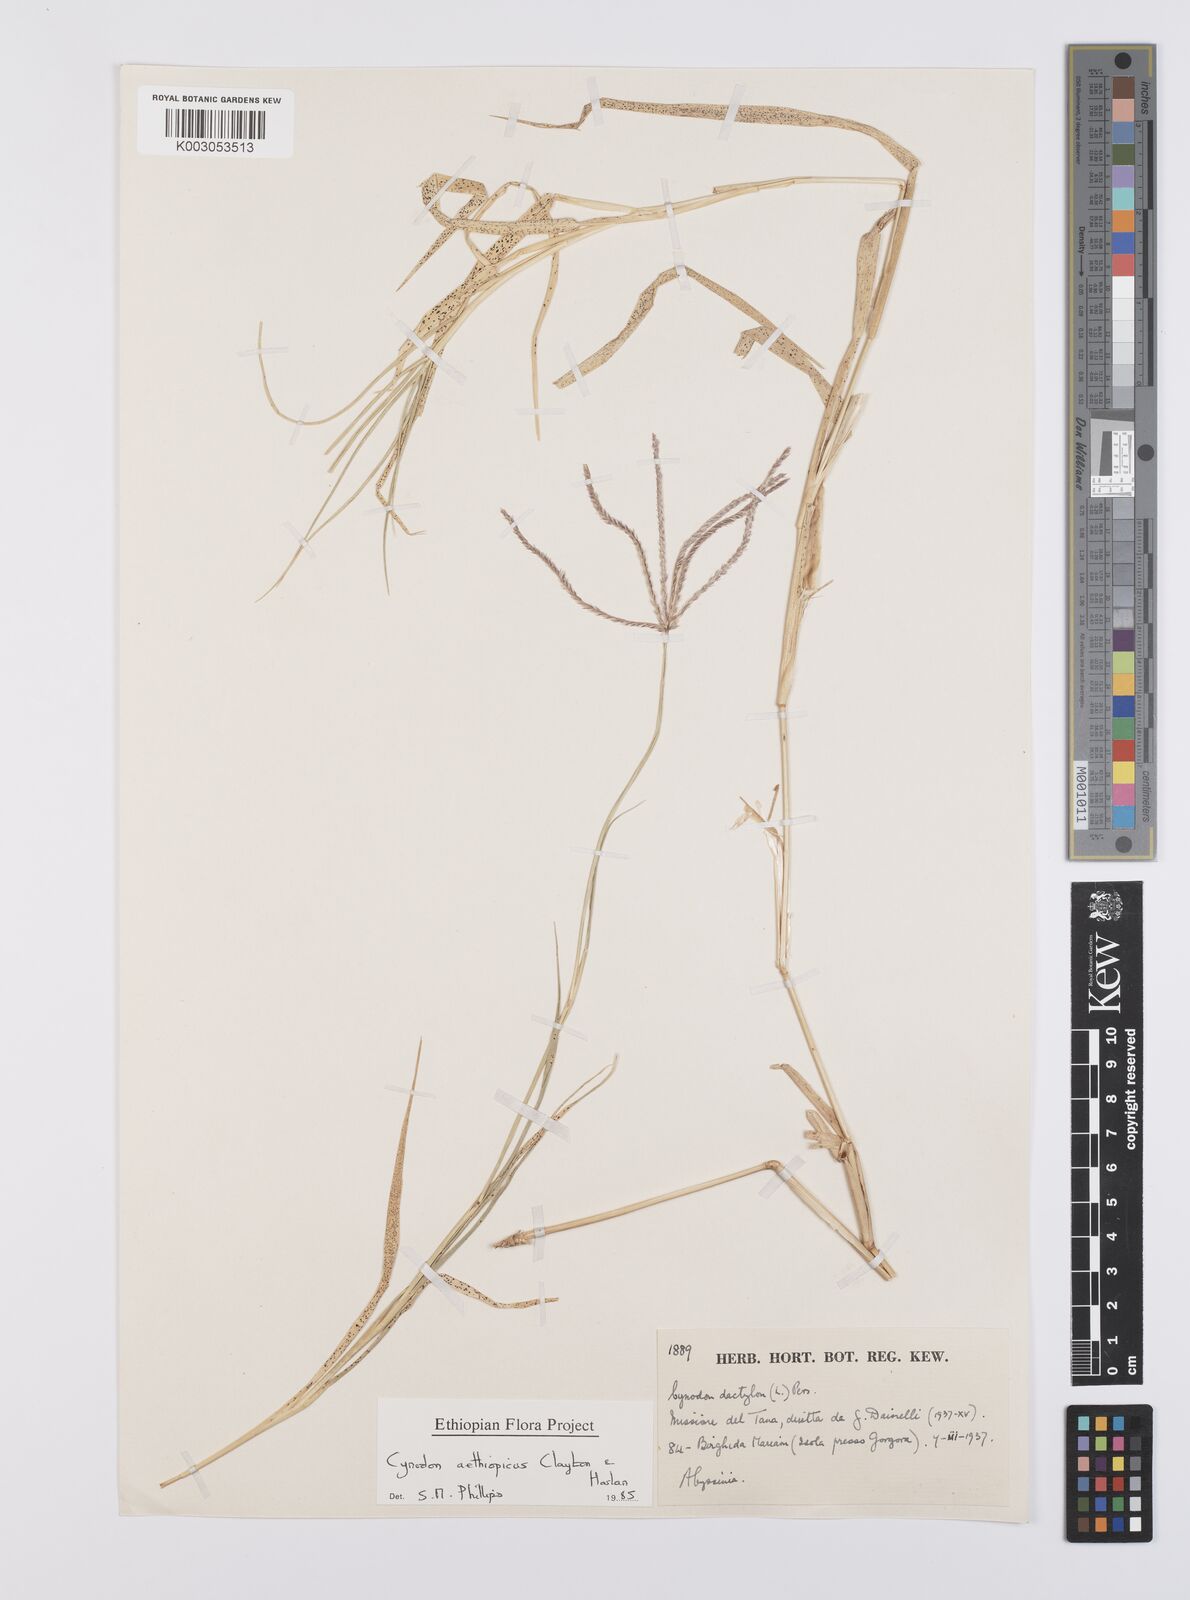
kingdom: Plantae
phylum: Tracheophyta
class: Liliopsida
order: Poales
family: Poaceae
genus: Cynodon
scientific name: Cynodon aethiopicus
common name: Ethiopian dogstooth grass
